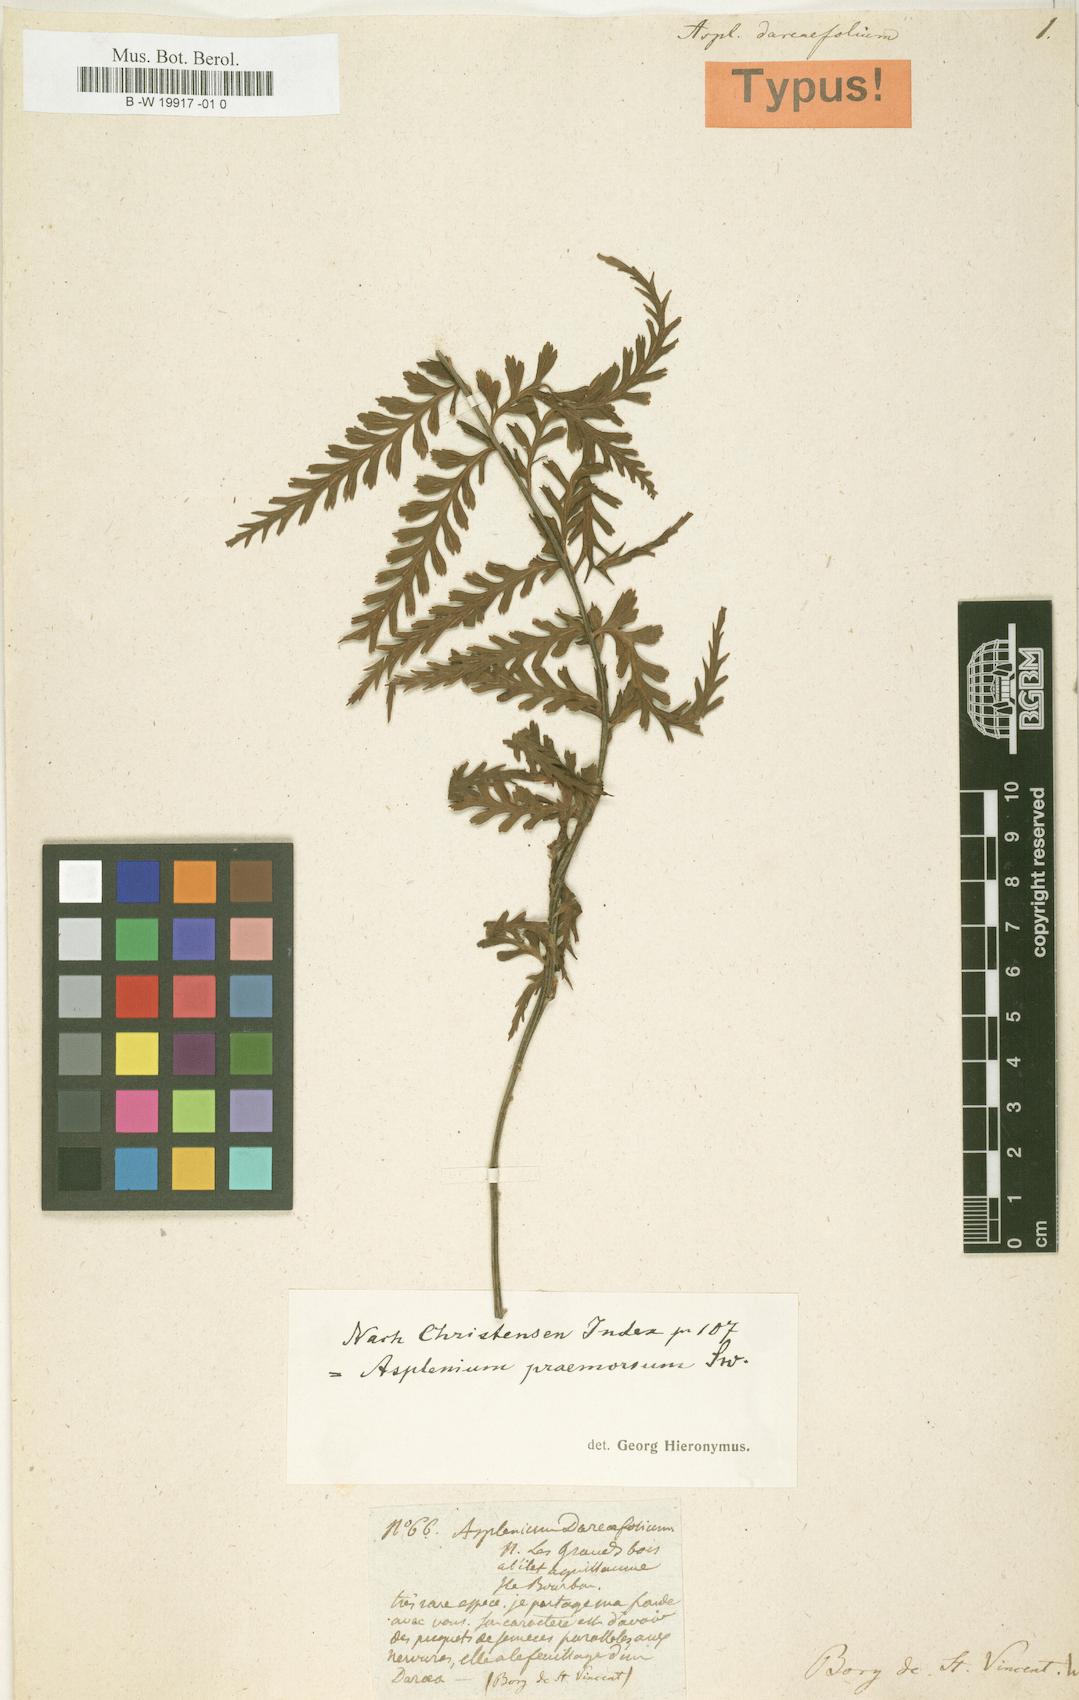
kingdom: Plantae
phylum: Tracheophyta
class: Polypodiopsida
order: Polypodiales
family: Aspleniaceae
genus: Asplenium
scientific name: Asplenium pellucidum
